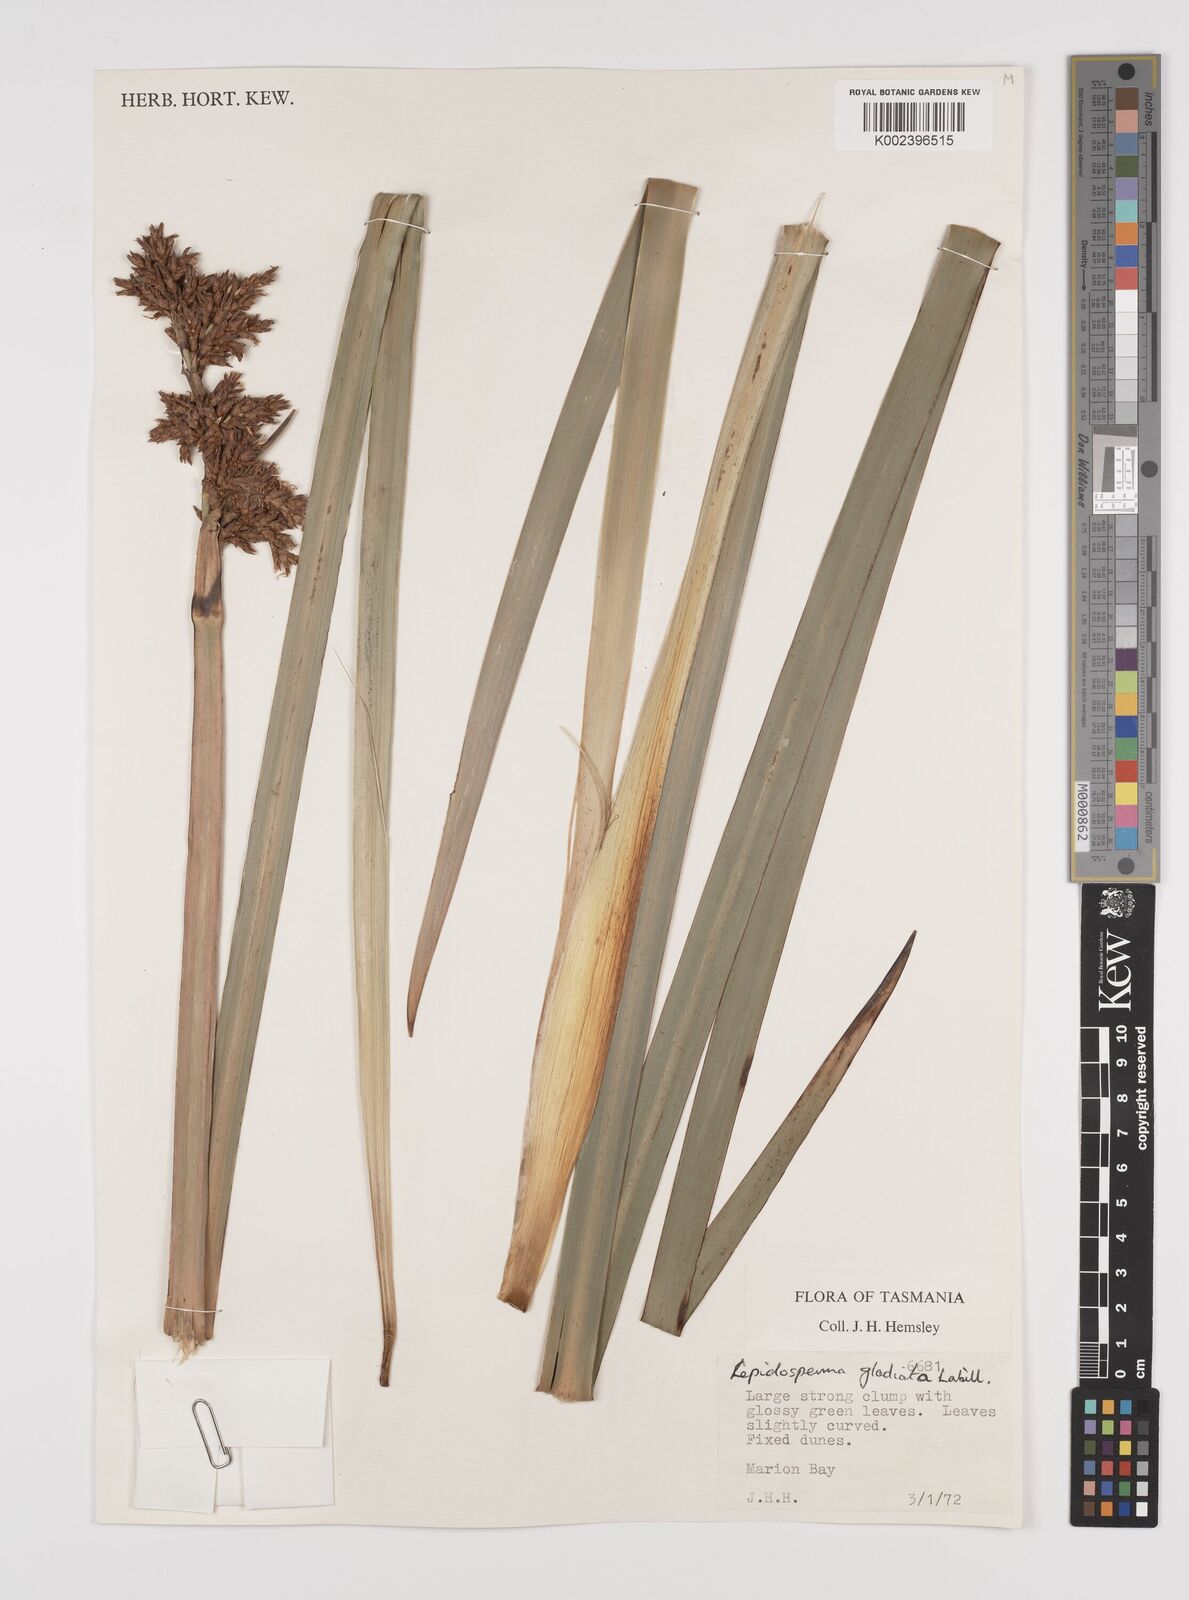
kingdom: Plantae
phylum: Tracheophyta
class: Liliopsida
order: Poales
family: Cyperaceae
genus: Lepidosperma
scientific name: Lepidosperma gladiatum
